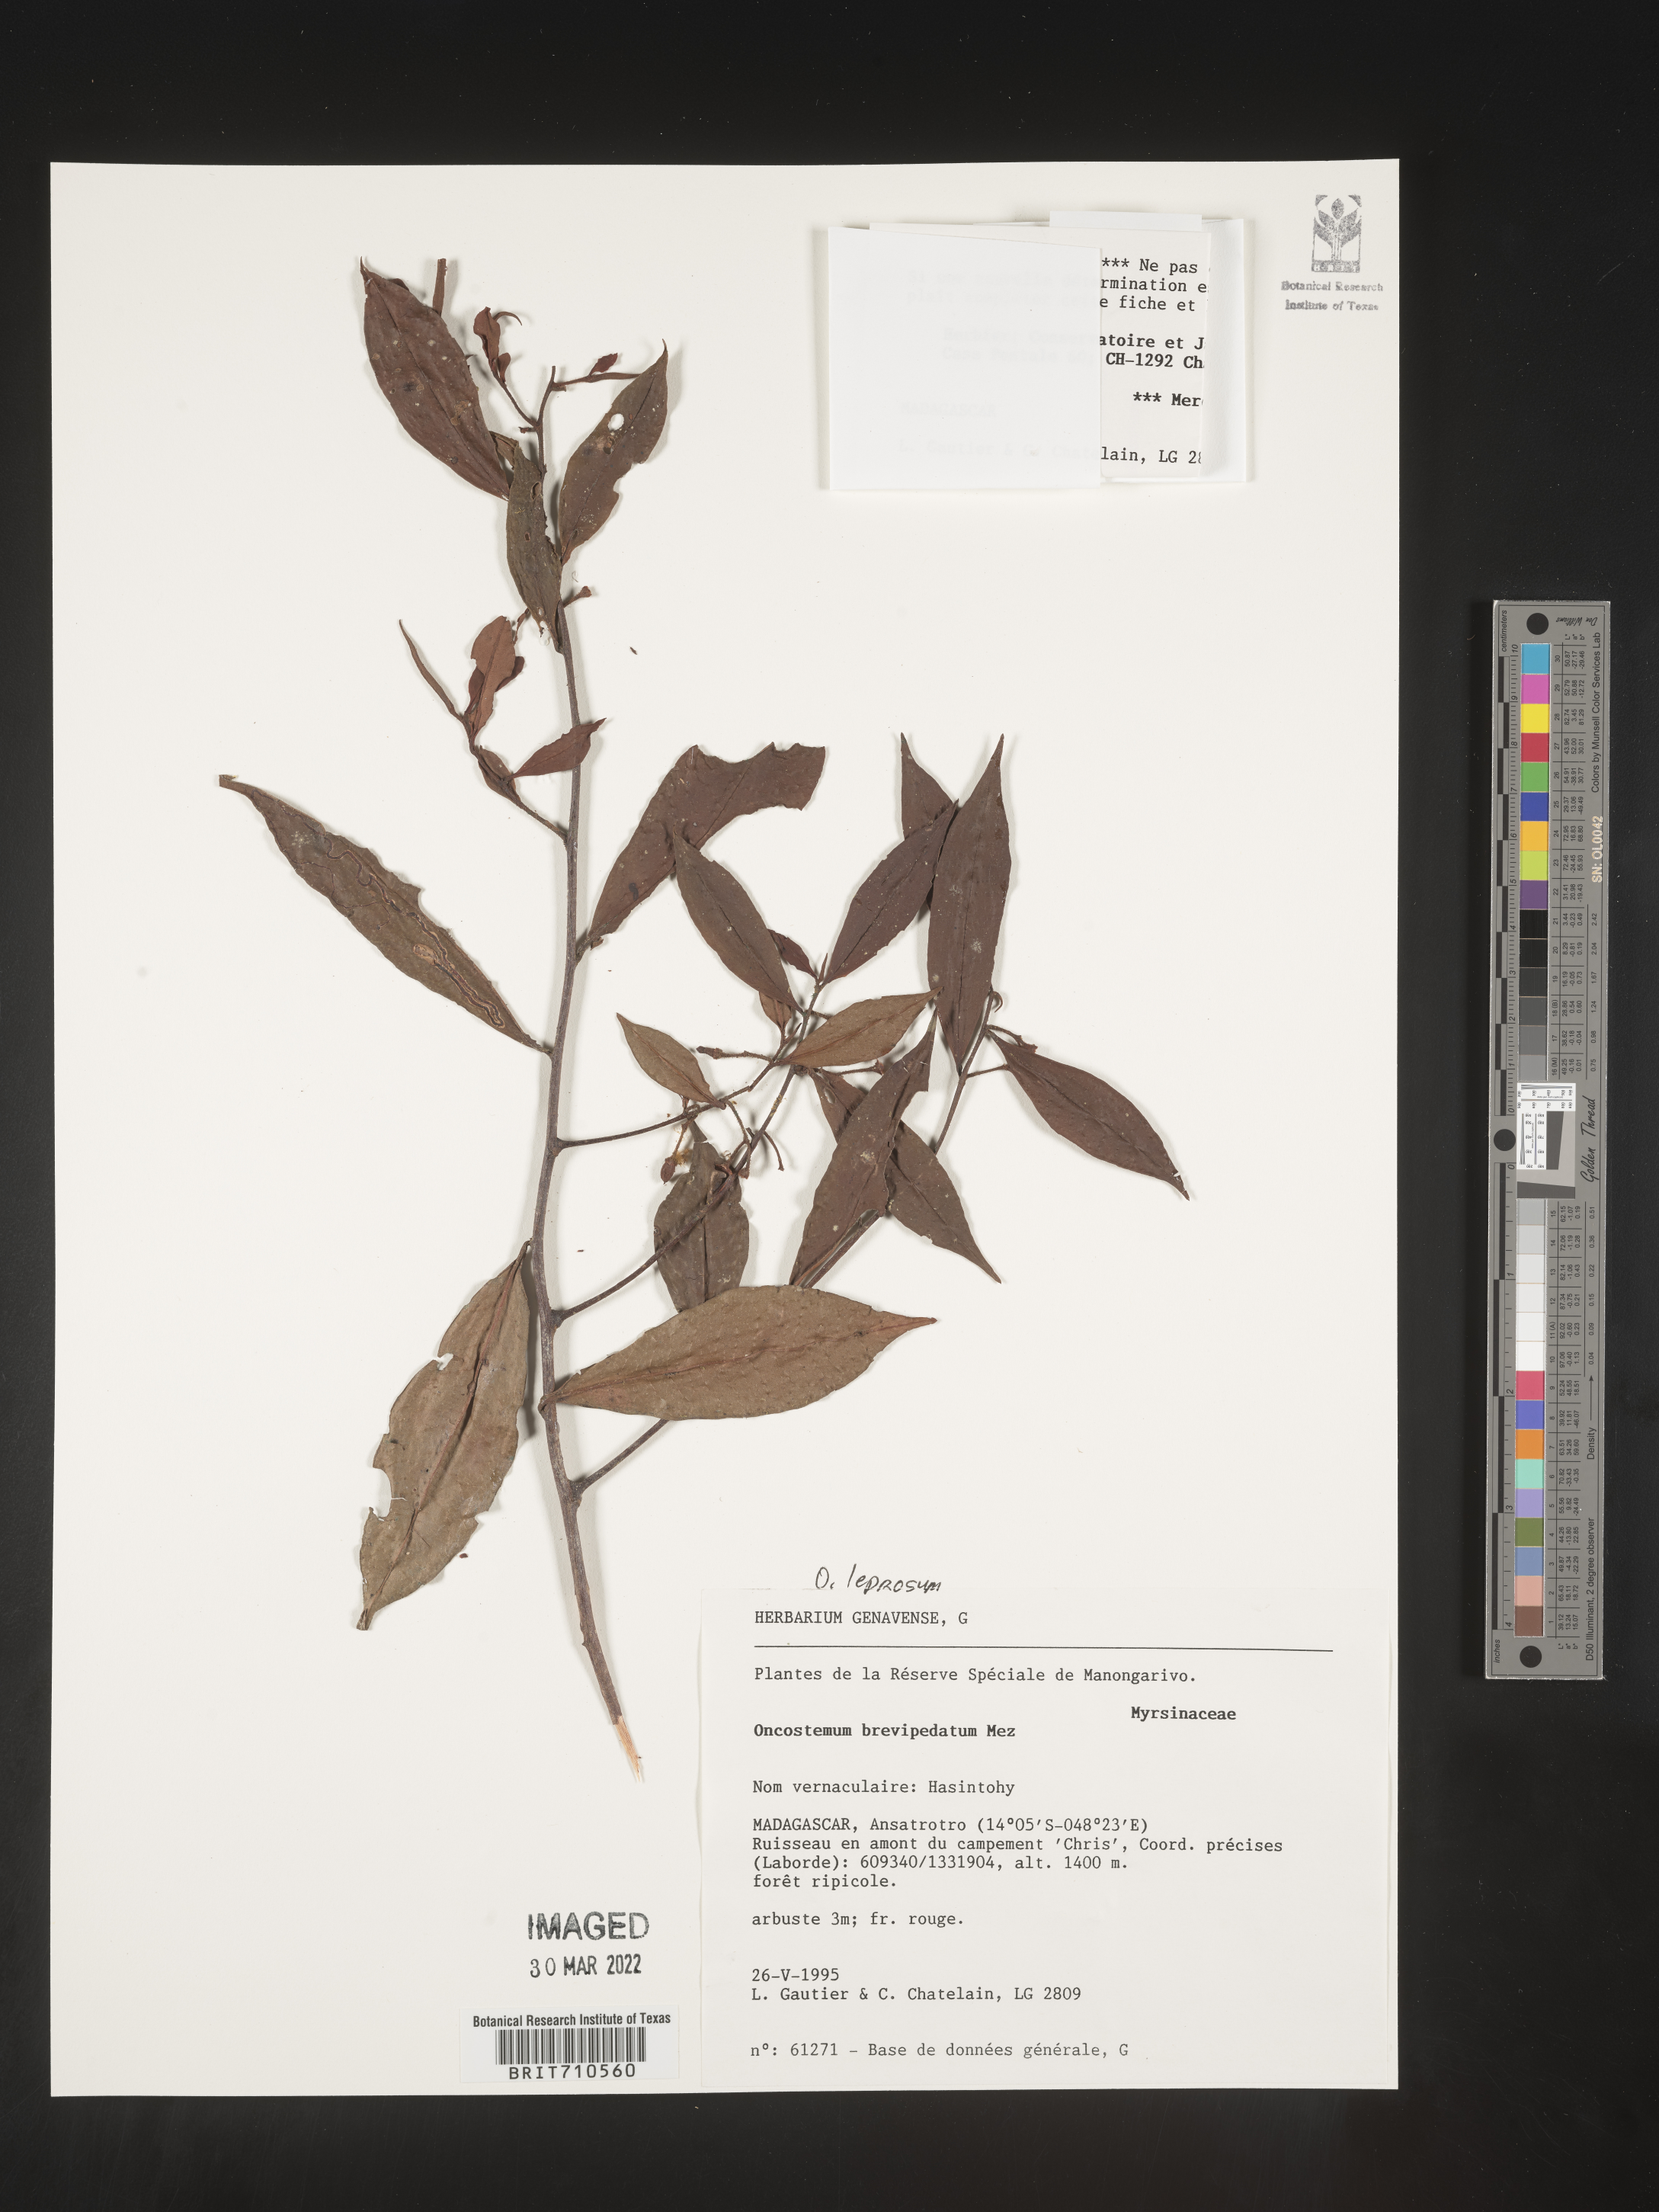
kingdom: Plantae
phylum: Tracheophyta
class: Magnoliopsida
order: Ericales
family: Primulaceae
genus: Oncostemum
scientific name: Oncostemum
